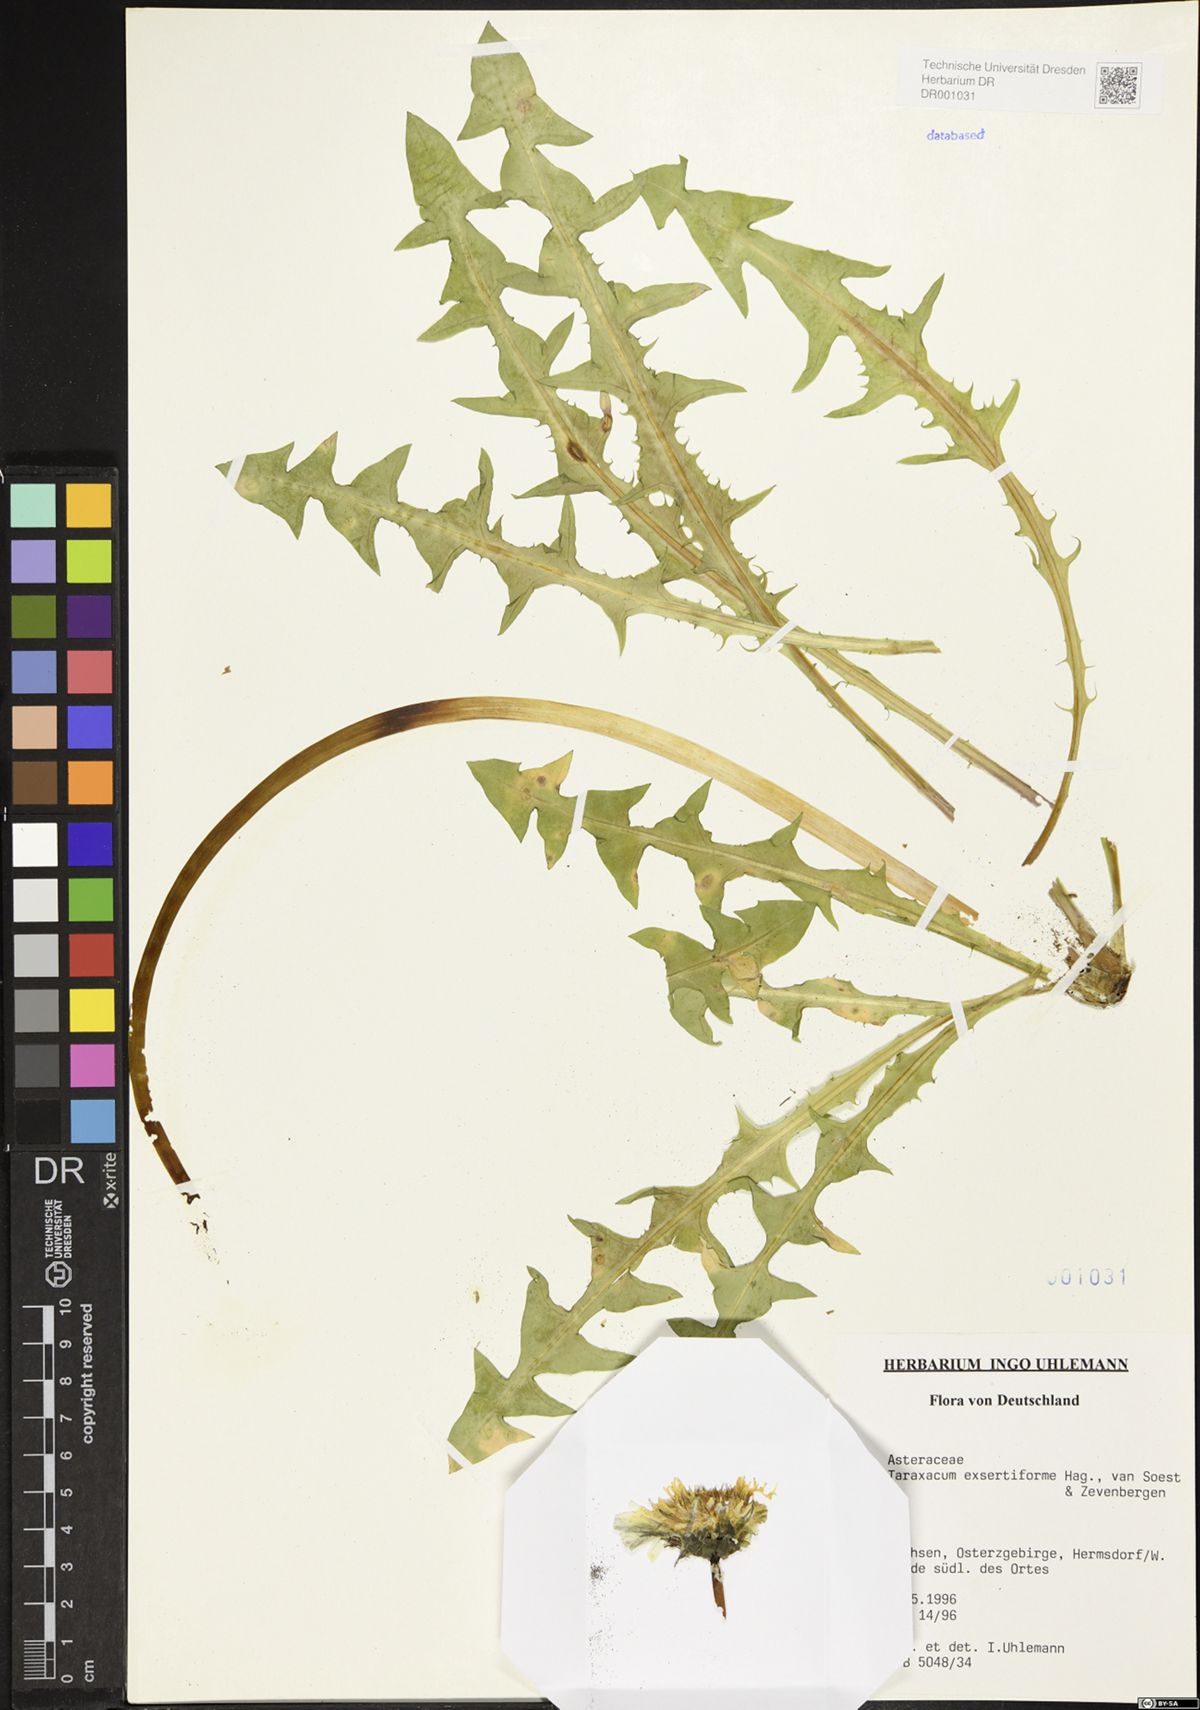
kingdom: Plantae
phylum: Tracheophyta
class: Magnoliopsida
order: Asterales
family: Asteraceae
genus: Taraxacum
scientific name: Taraxacum exsertiforme
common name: Erect-bracted dandelion
